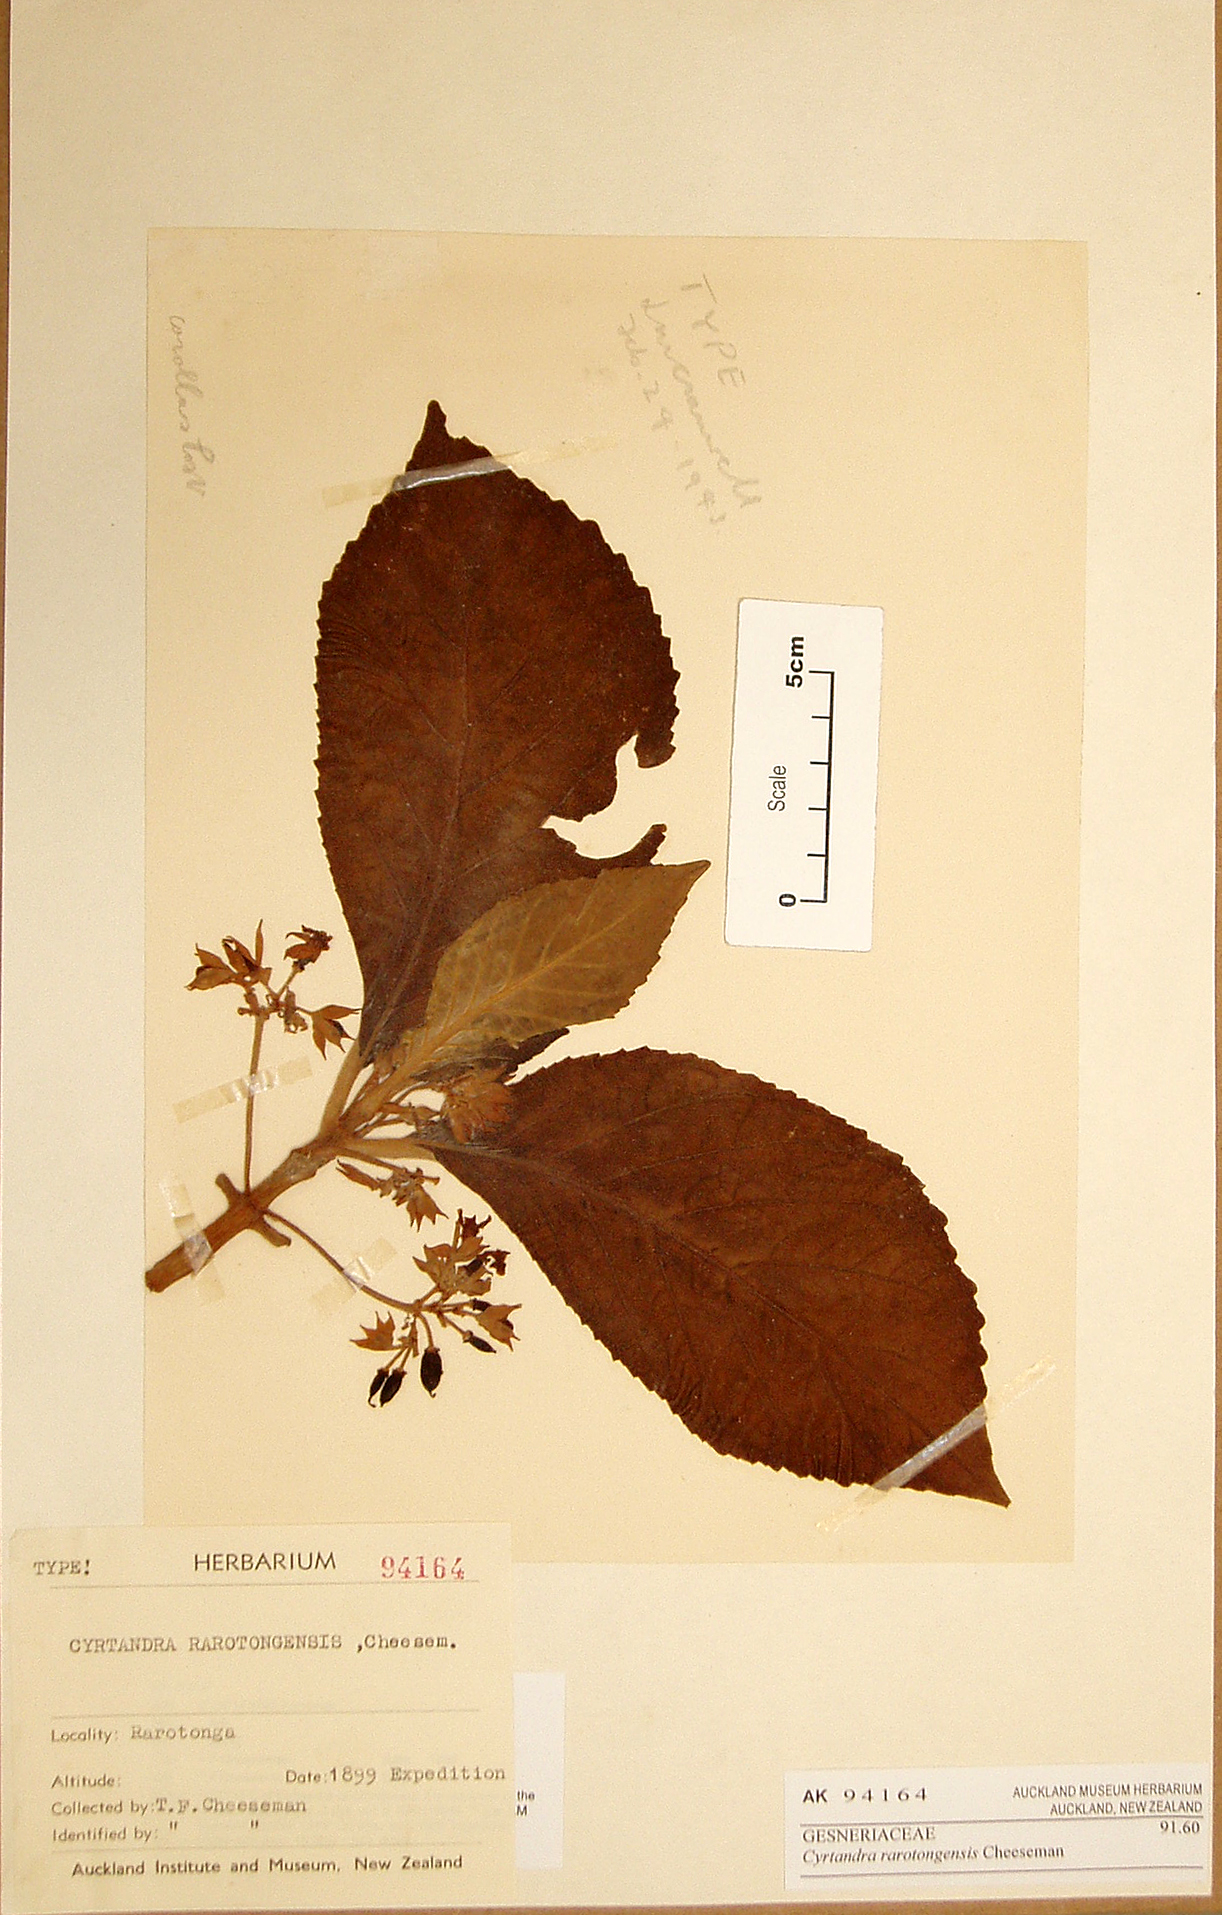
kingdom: Plantae
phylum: Tracheophyta
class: Magnoliopsida
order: Lamiales
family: Gesneriaceae
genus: Cyrtandra
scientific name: Cyrtandra rarotongensis
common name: Rarotonga cyrtandra
